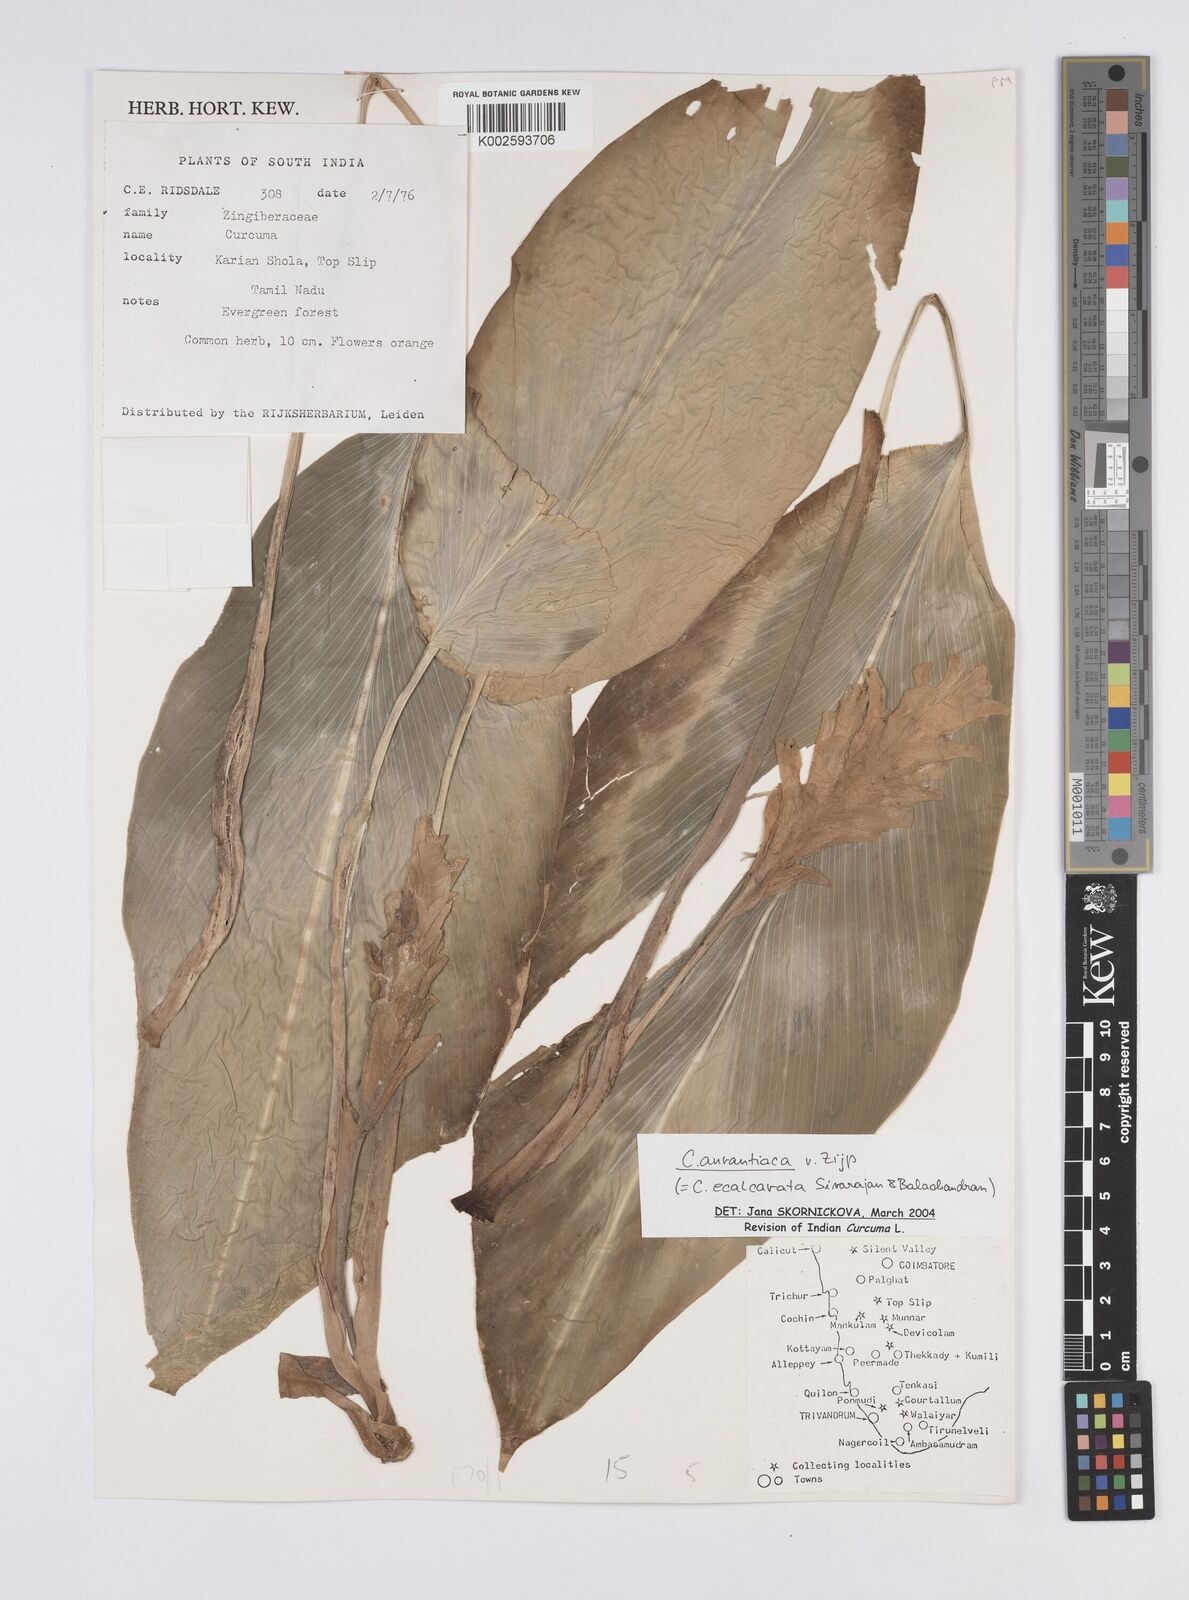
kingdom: Plantae
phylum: Tracheophyta
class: Liliopsida
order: Zingiberales
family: Zingiberaceae
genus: Curcuma
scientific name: Curcuma aurantiaca
